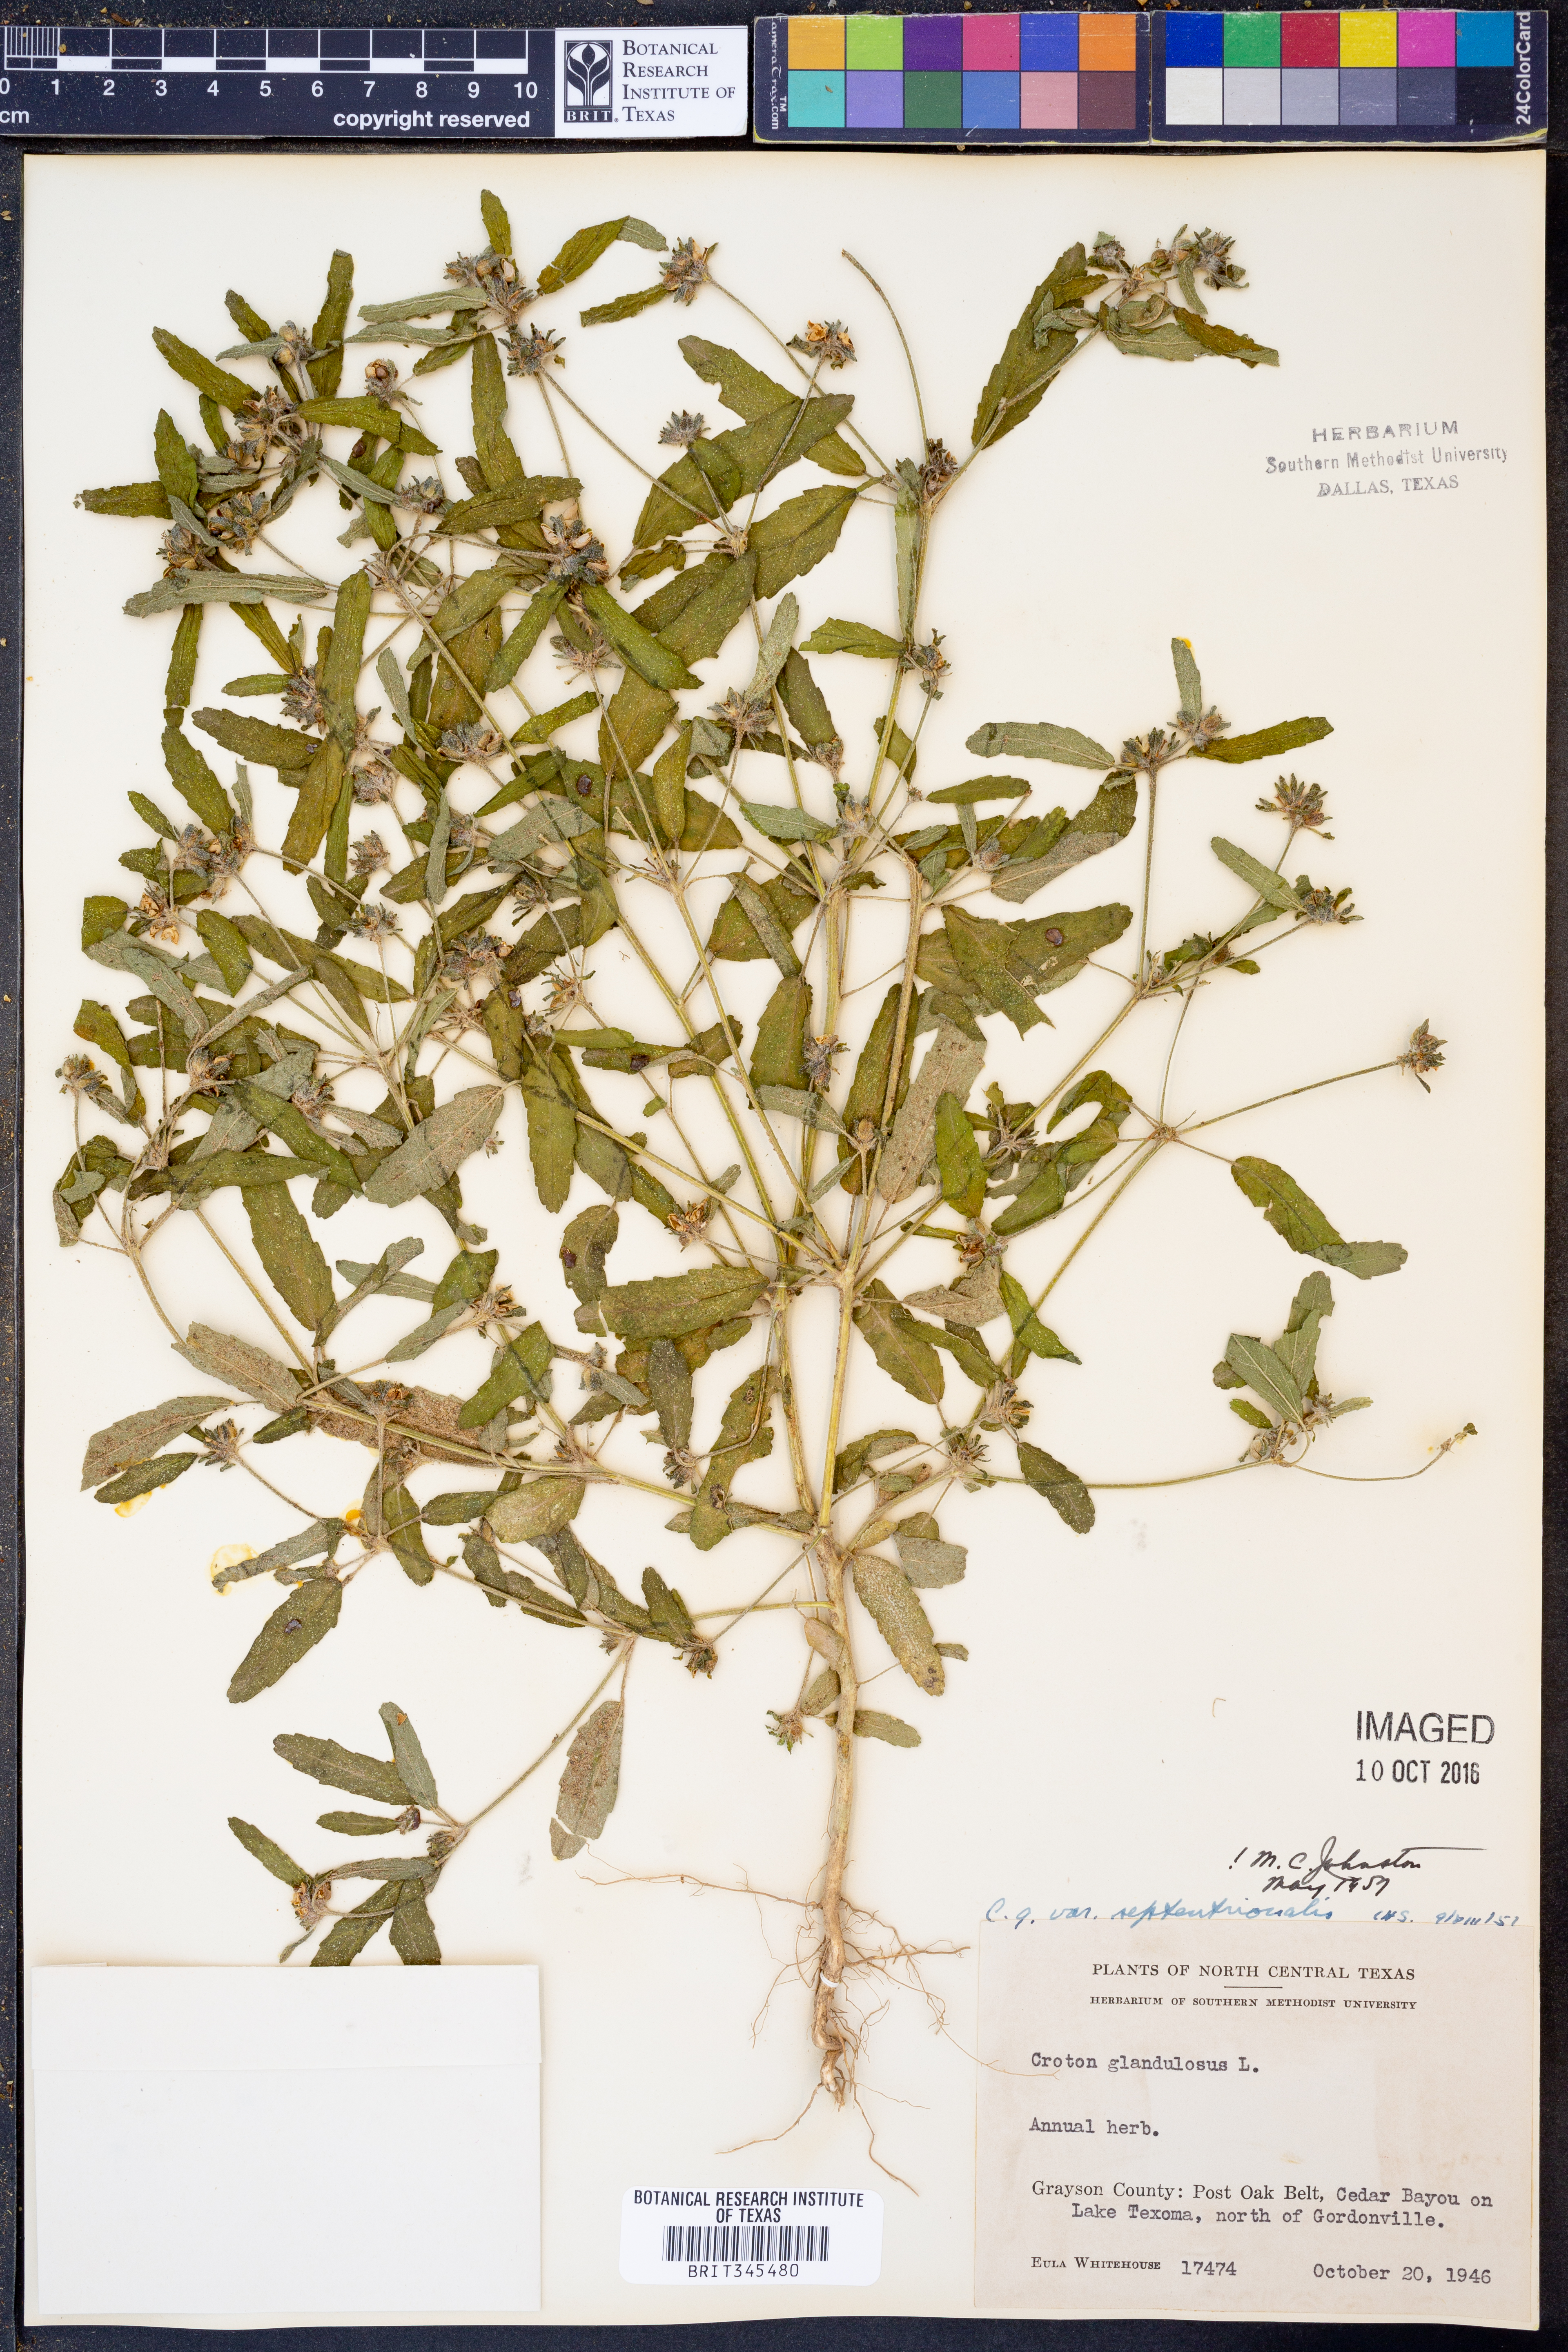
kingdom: Plantae
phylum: Tracheophyta
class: Magnoliopsida
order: Malpighiales
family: Euphorbiaceae
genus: Croton
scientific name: Croton glandulosus
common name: Tropic croton
